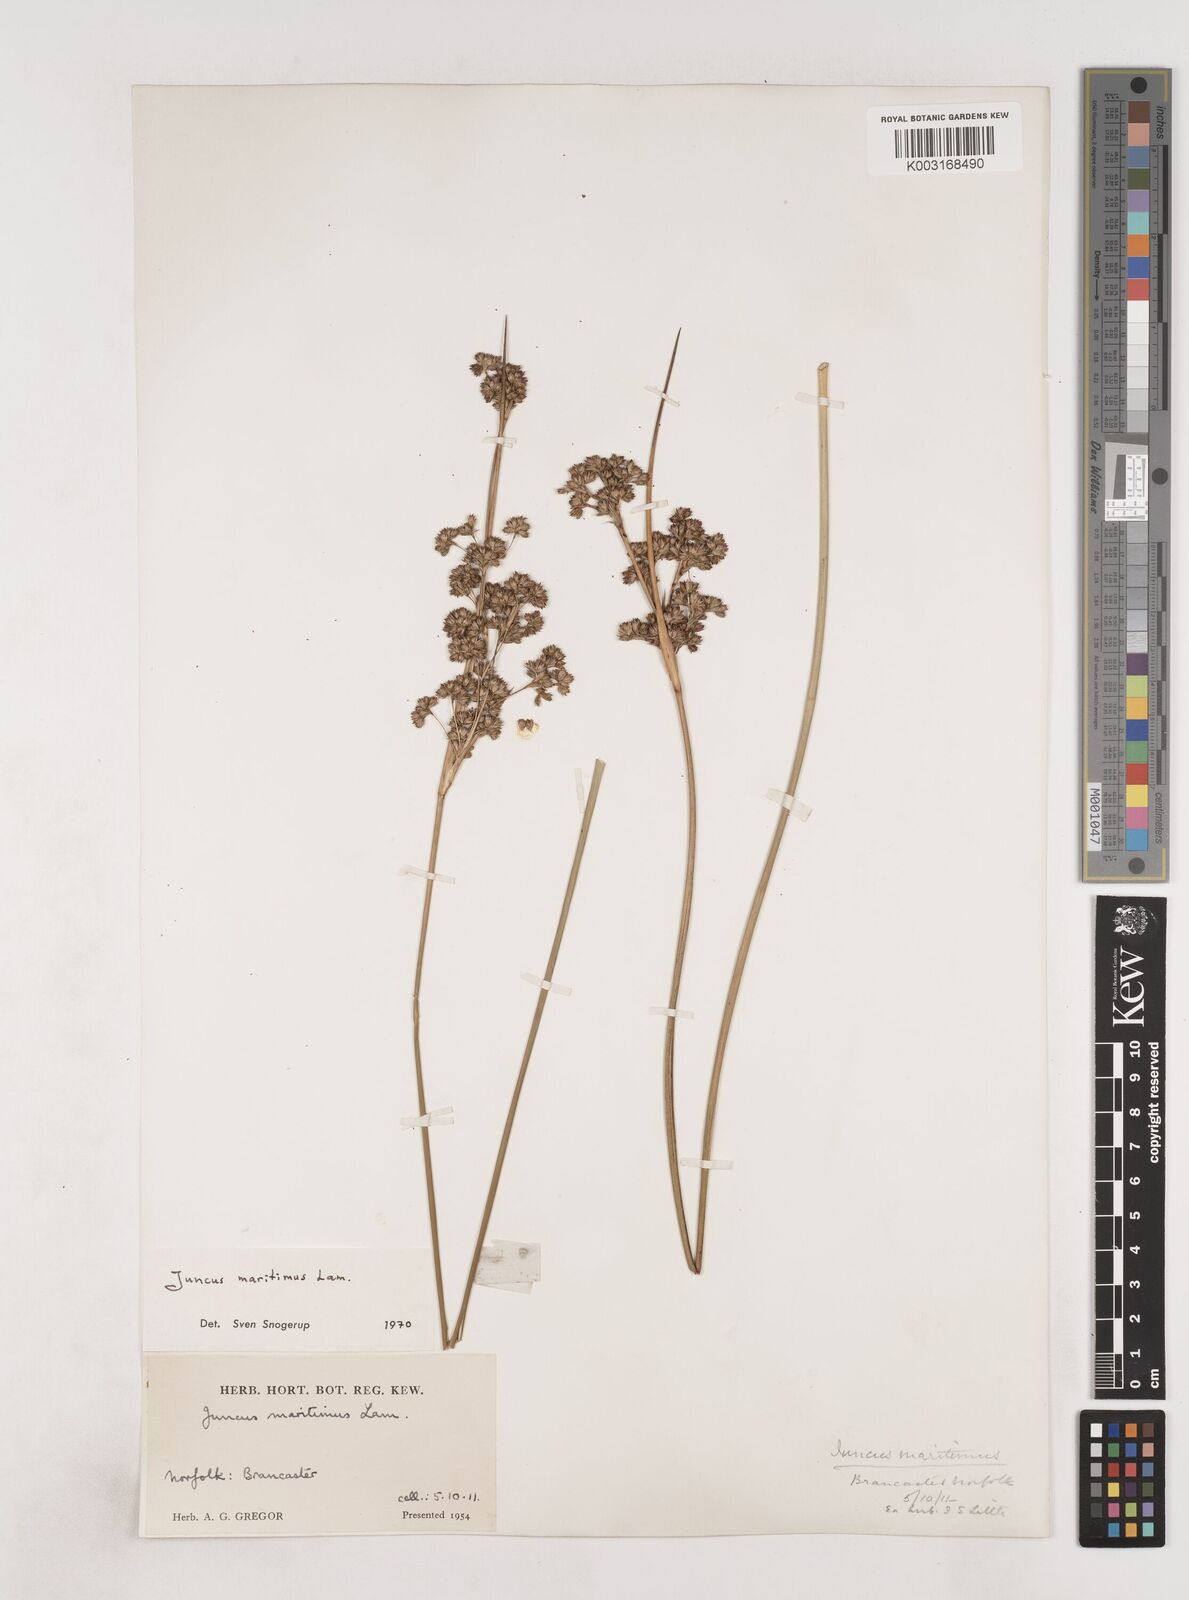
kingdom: Plantae
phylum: Tracheophyta
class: Liliopsida
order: Poales
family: Juncaceae
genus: Juncus
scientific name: Juncus maritimus
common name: Sea rush
